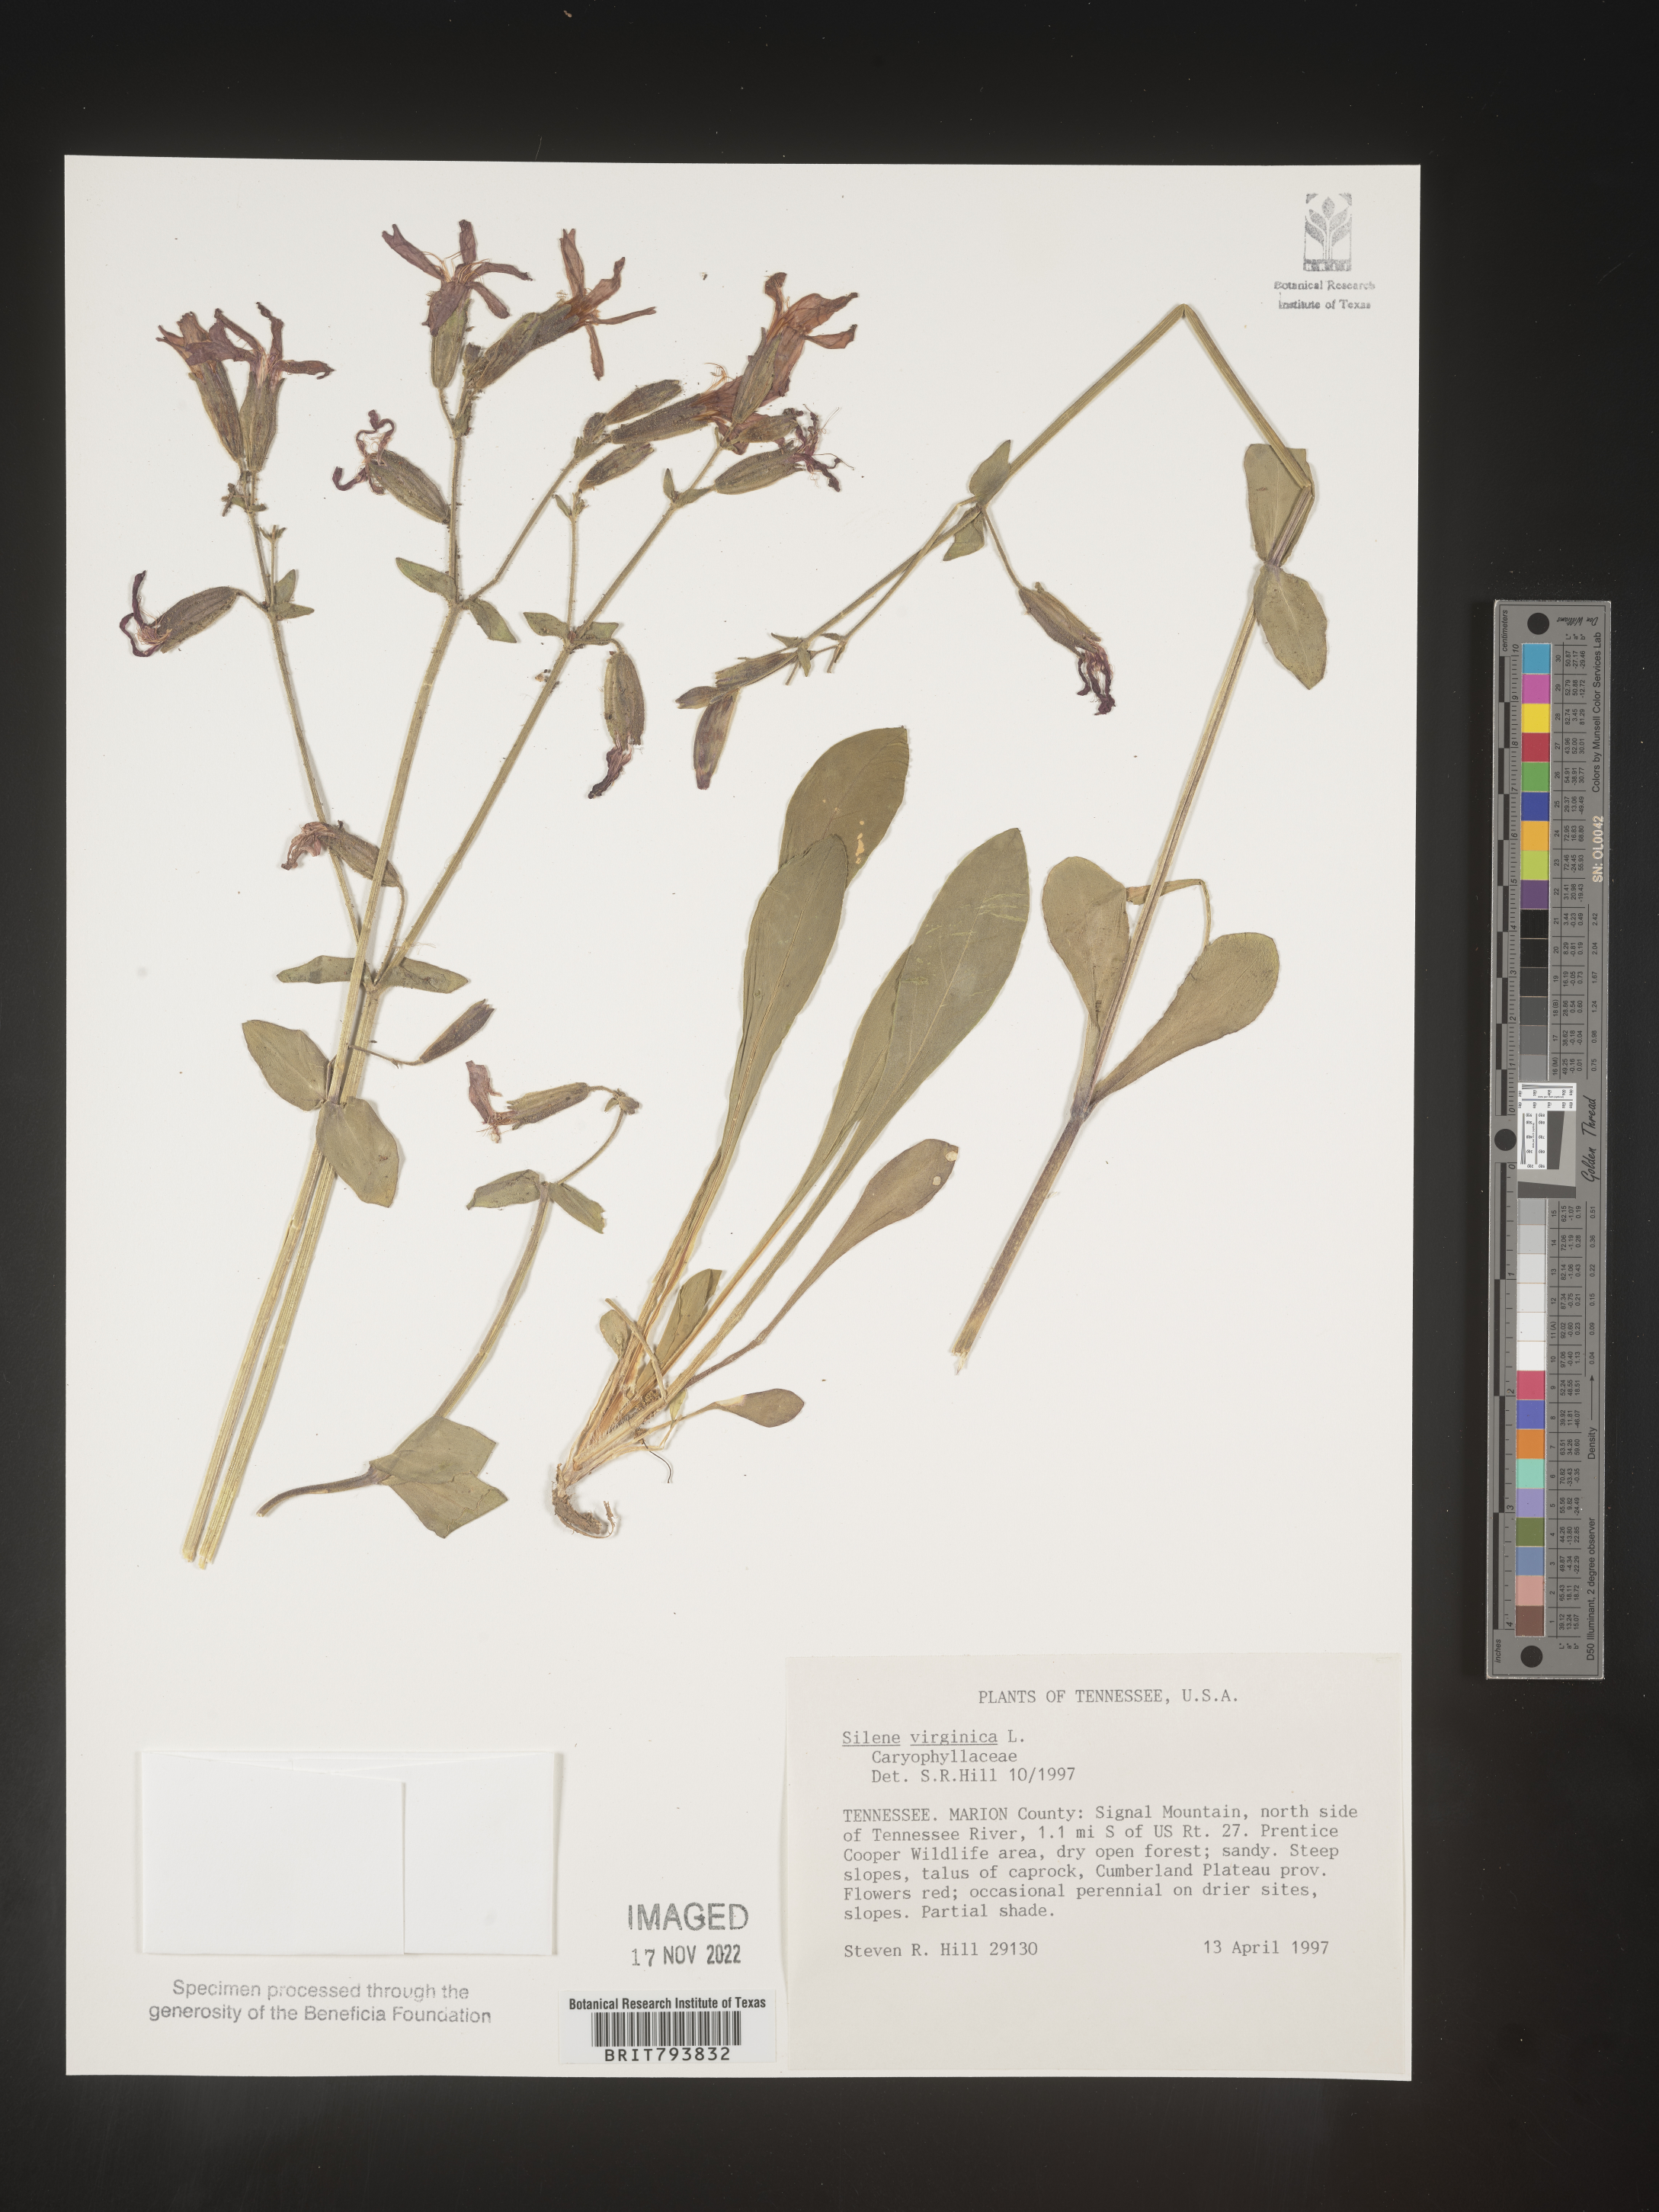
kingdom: Plantae
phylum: Tracheophyta
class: Magnoliopsida
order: Caryophyllales
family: Caryophyllaceae
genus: Silene
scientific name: Silene virginica
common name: Fire-pink
